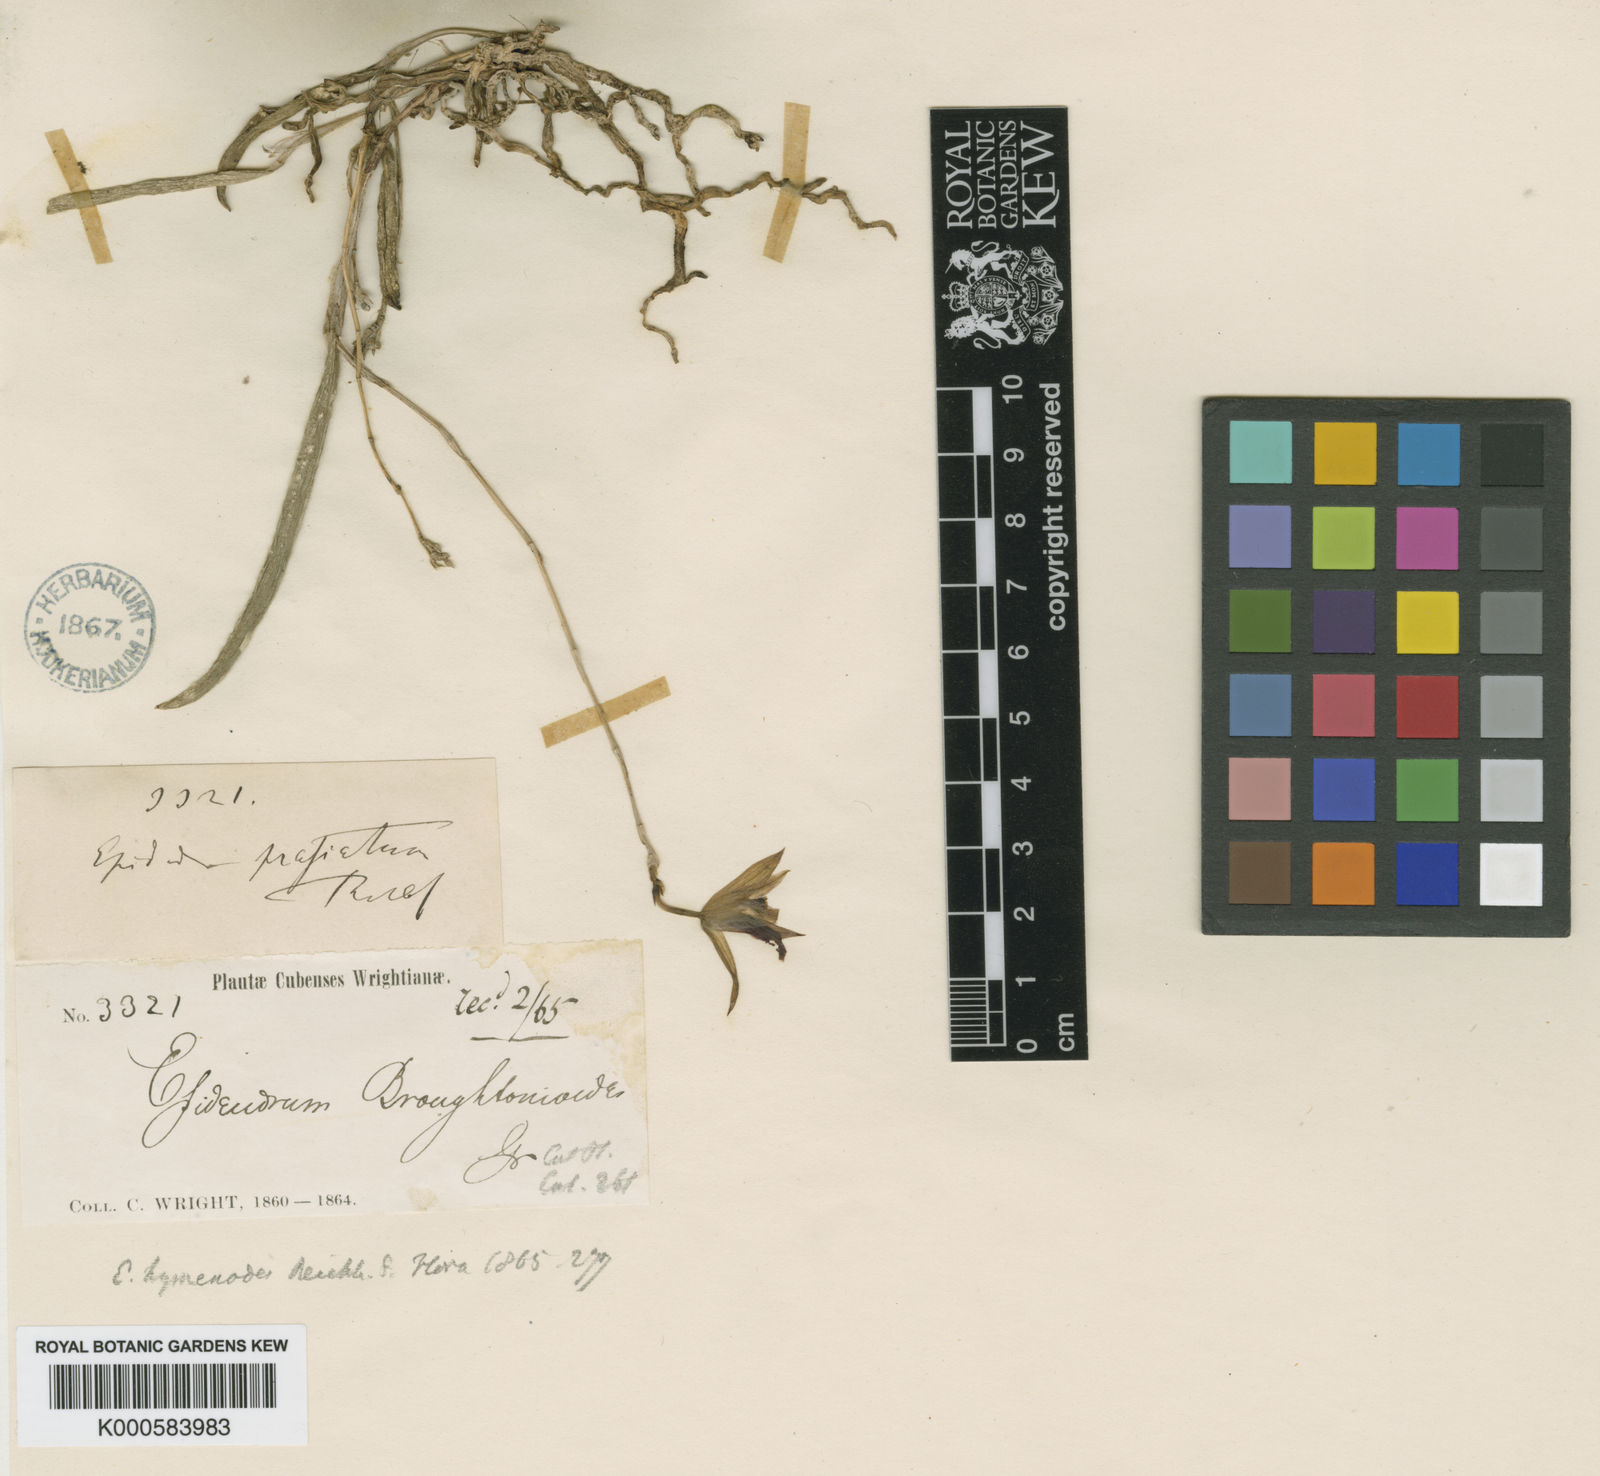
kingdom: Plantae
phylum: Tracheophyta
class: Liliopsida
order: Asparagales
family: Orchidaceae
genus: Domingoa
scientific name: Domingoa
